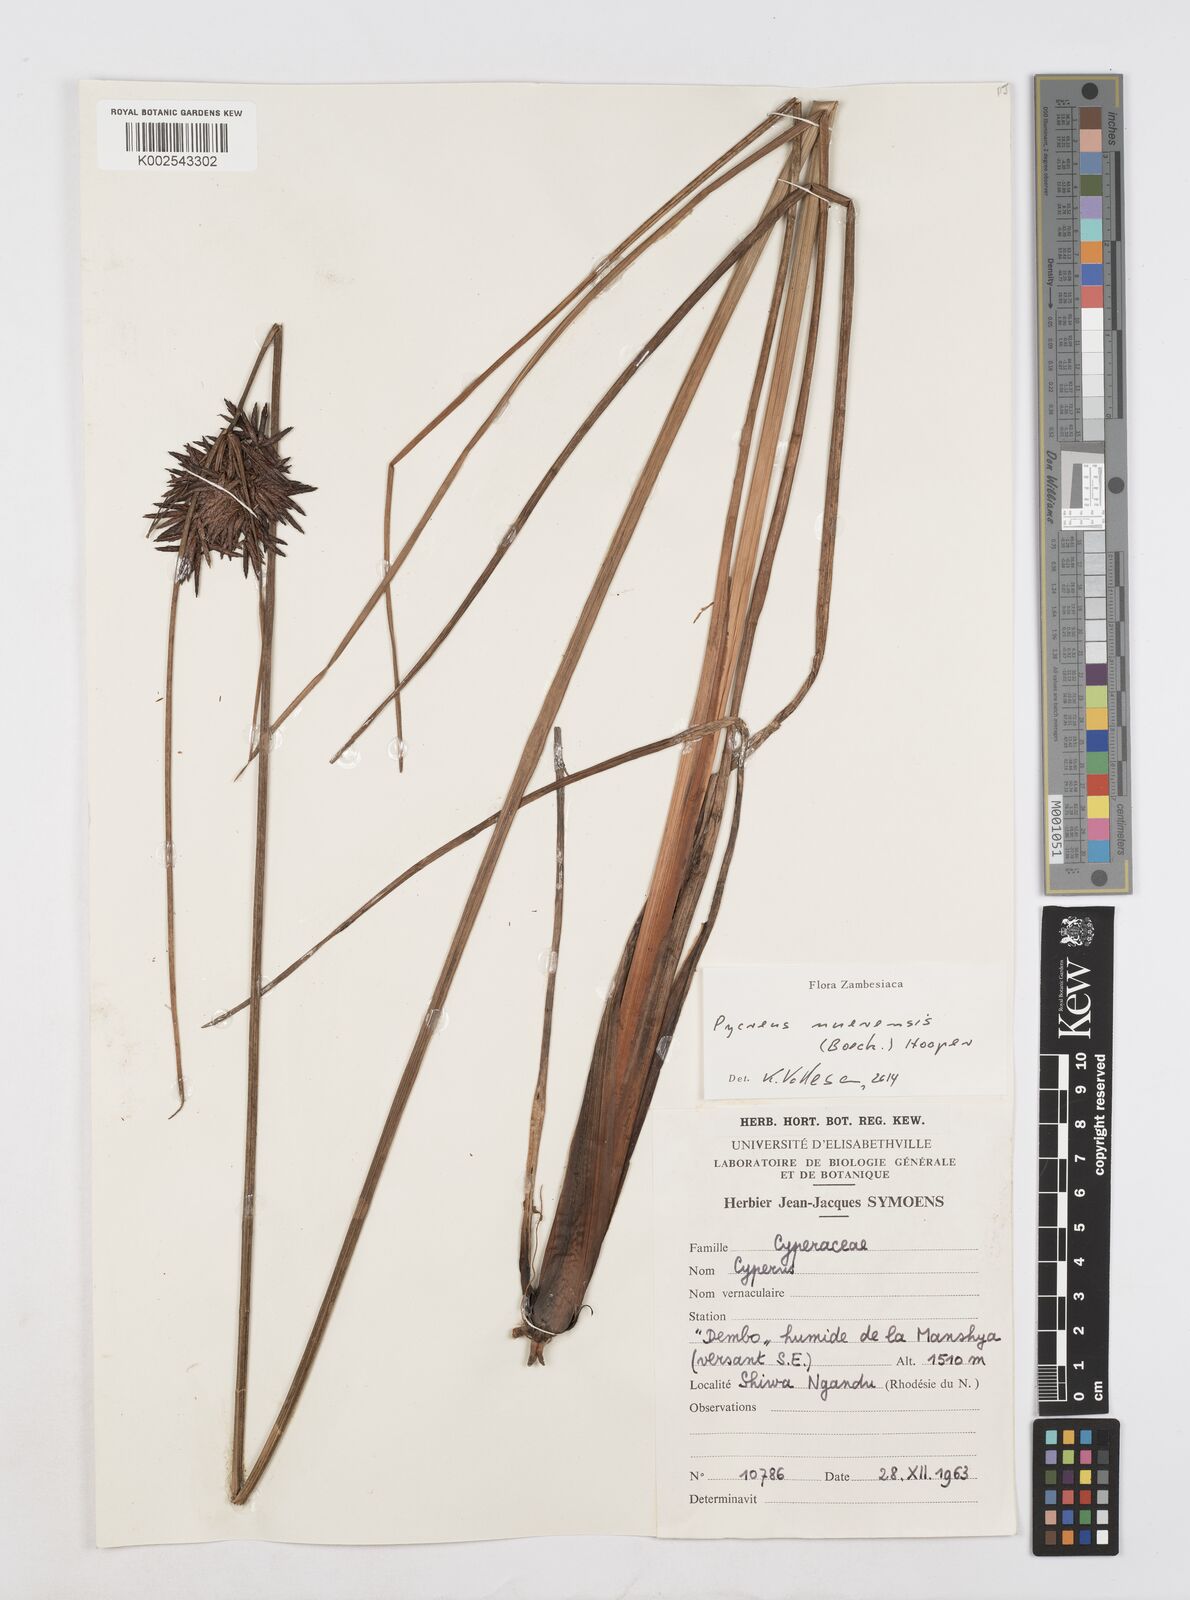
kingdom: Plantae
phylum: Tracheophyta
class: Liliopsida
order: Poales
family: Cyperaceae
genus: Cyperus
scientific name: Cyperus nuerensis
